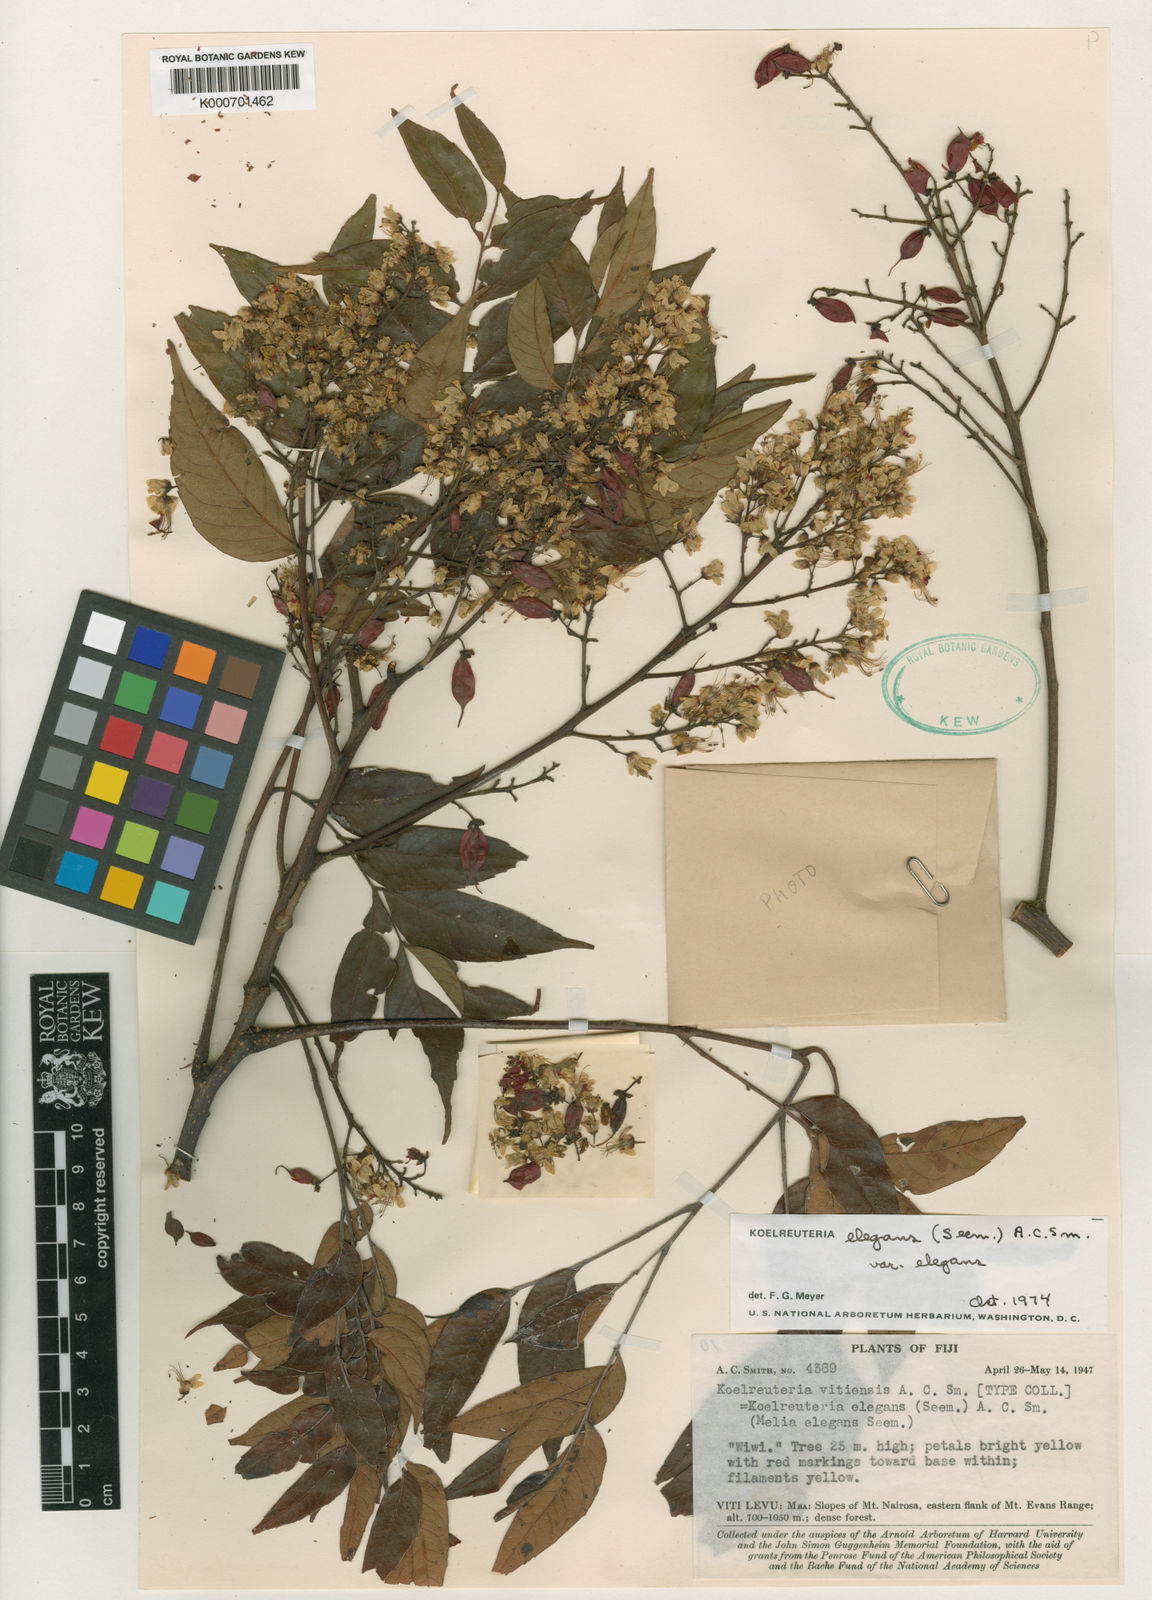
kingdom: Plantae
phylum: Tracheophyta
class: Magnoliopsida
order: Sapindales
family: Sapindaceae
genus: Koelreuteria
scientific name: Koelreuteria elegans
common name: Chinese flame tree
